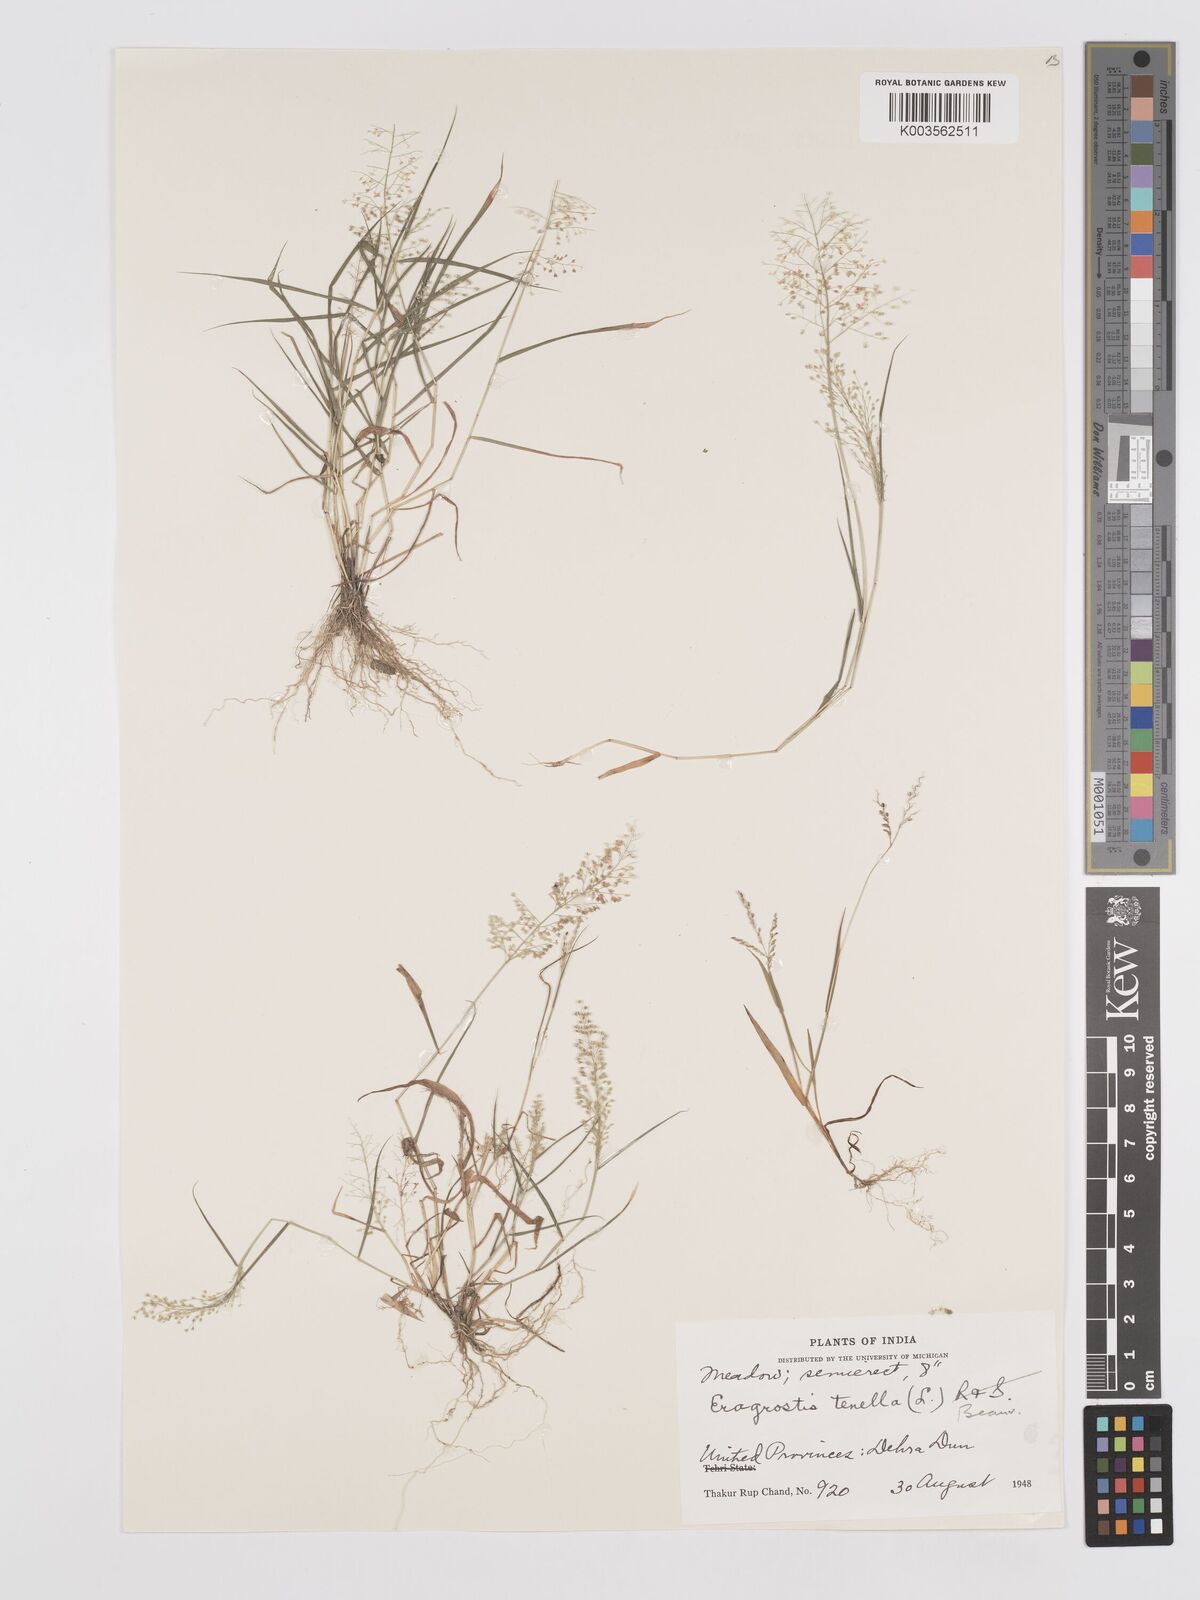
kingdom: Plantae
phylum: Tracheophyta
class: Liliopsida
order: Poales
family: Poaceae
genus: Eragrostis
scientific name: Eragrostis tenella
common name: Japanese lovegrass
